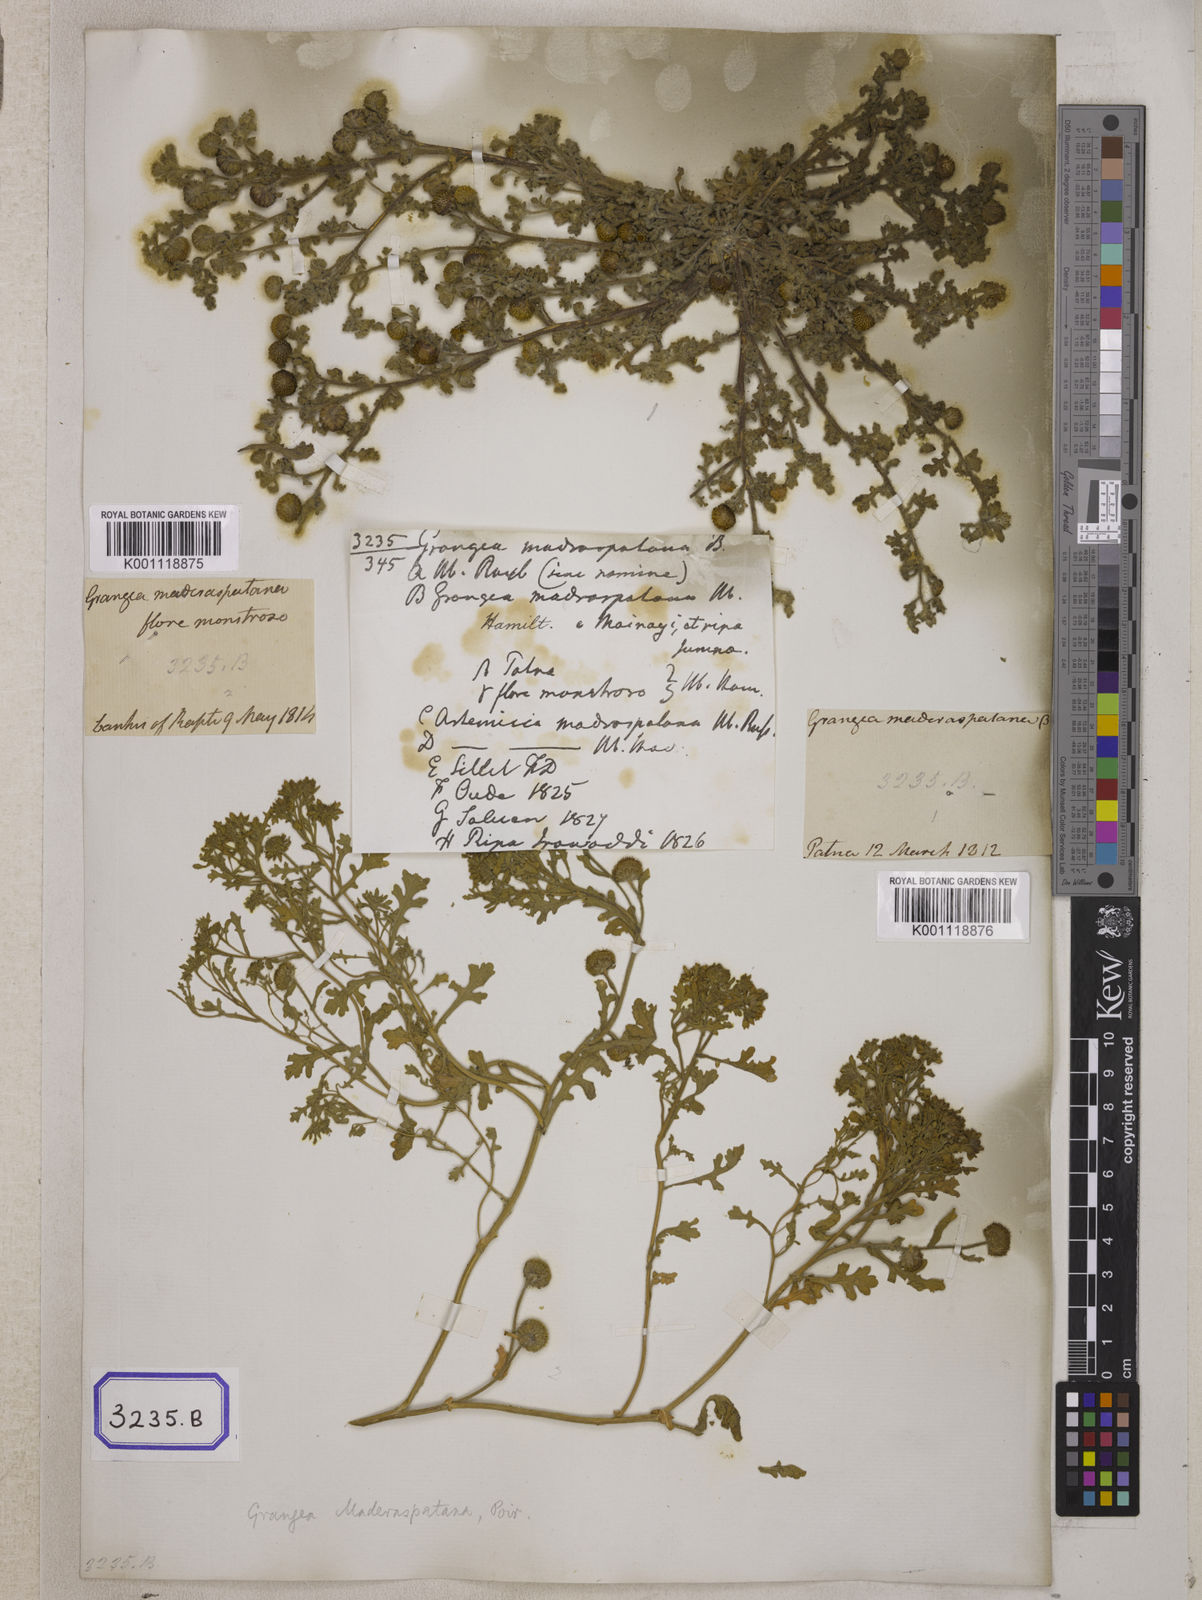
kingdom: Plantae
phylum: Tracheophyta
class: Magnoliopsida
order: Asterales
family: Asteraceae
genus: Grangea
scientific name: Grangea
